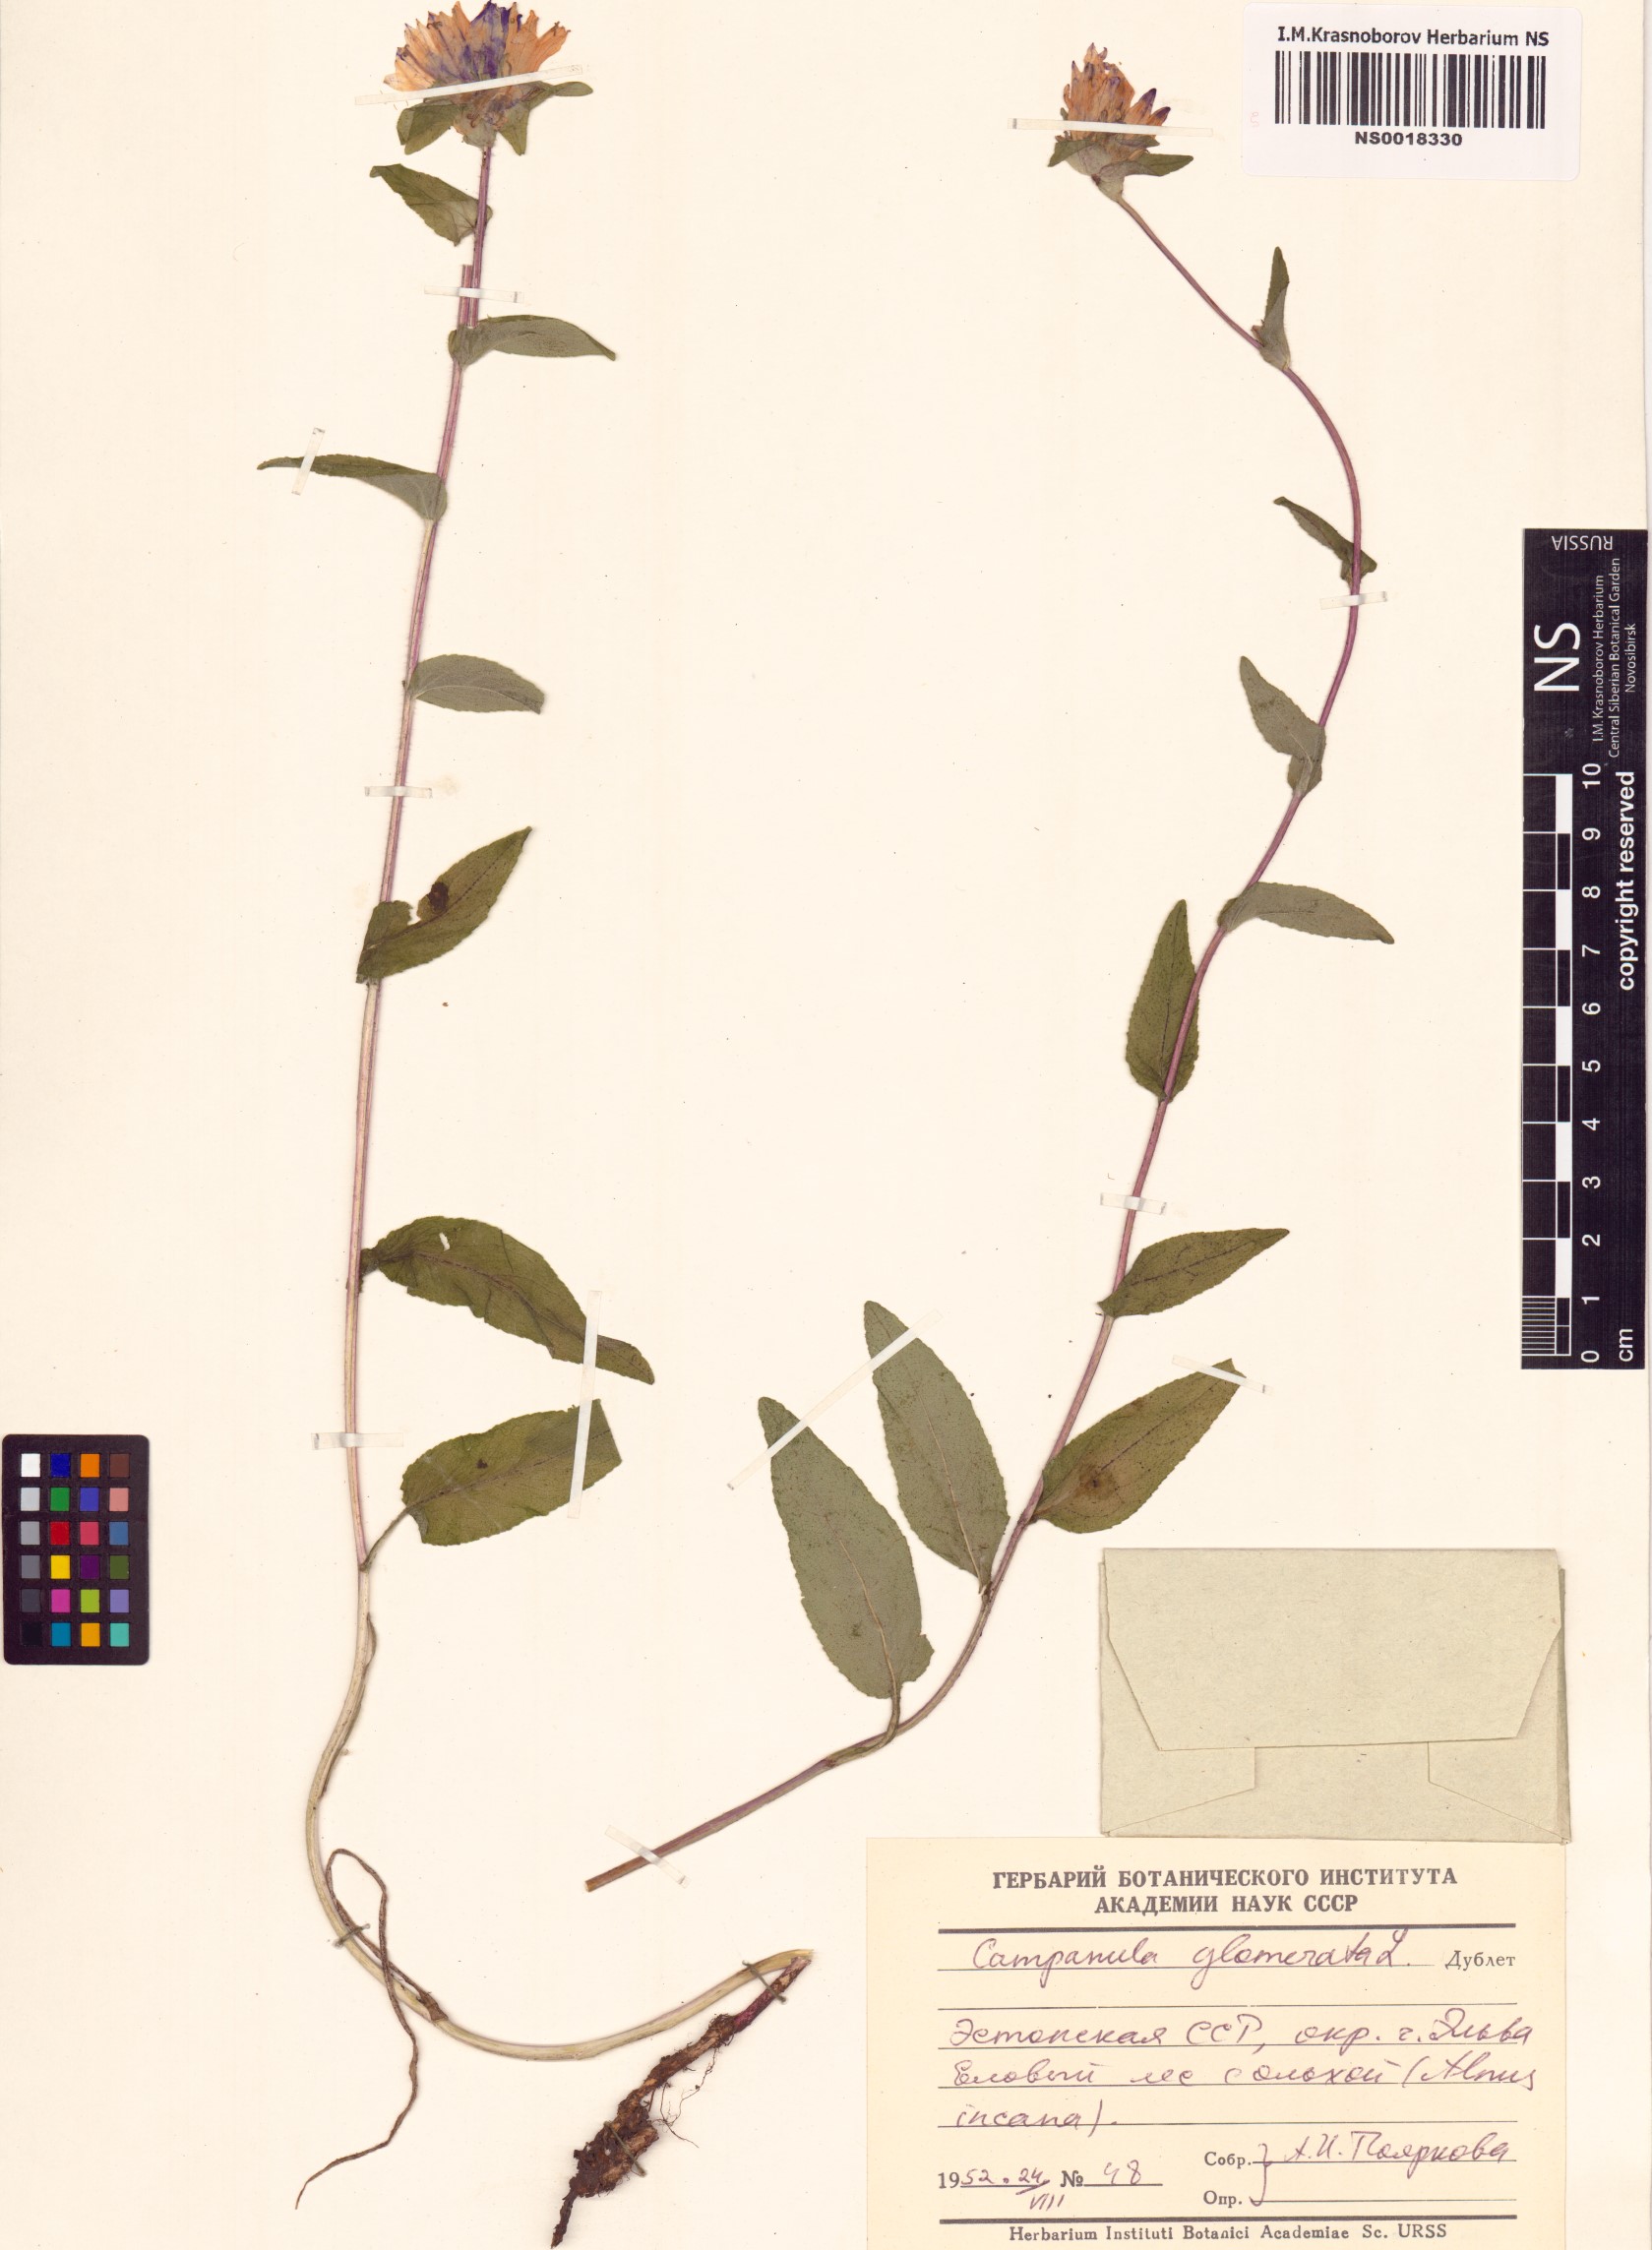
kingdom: Plantae
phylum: Tracheophyta
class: Magnoliopsida
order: Asterales
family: Campanulaceae
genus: Campanula
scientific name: Campanula glomerata
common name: Clustered bellflower
